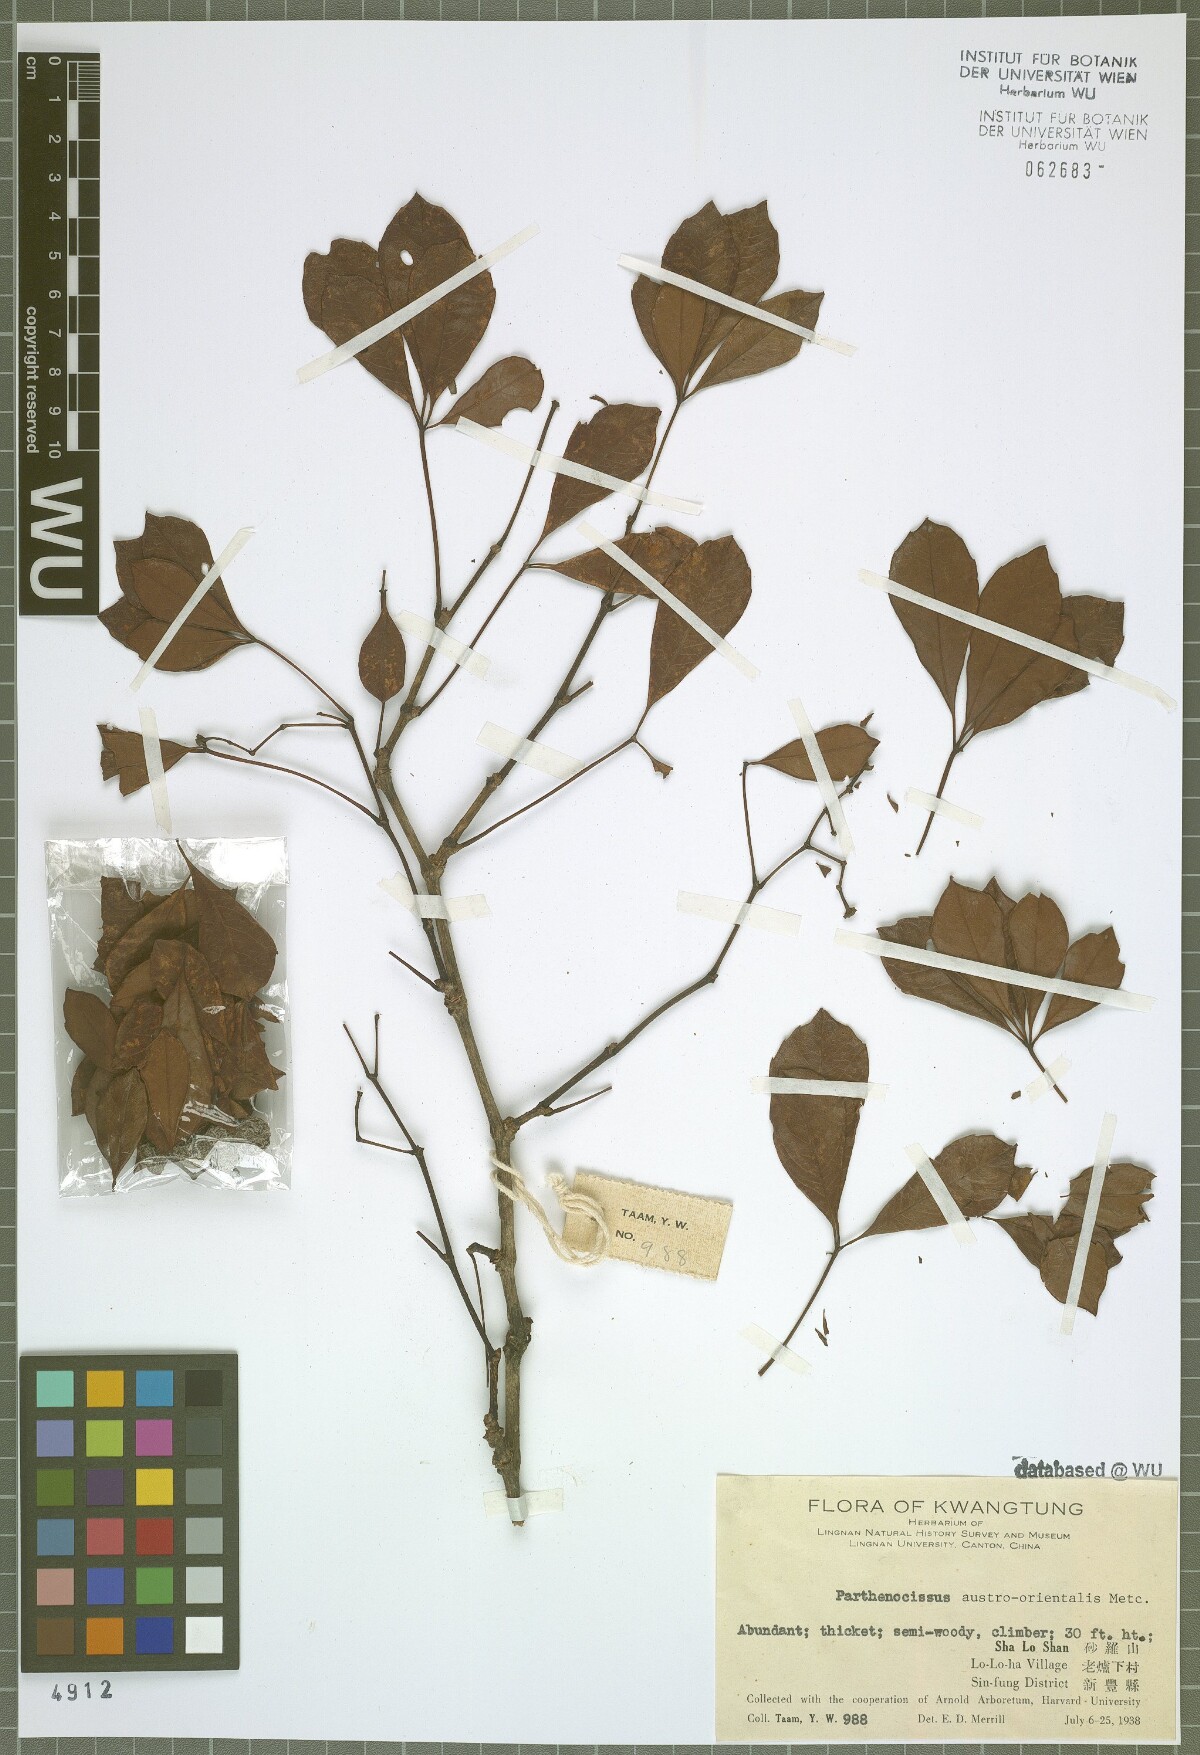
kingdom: Plantae
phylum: Tracheophyta
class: Magnoliopsida
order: Vitales
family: Vitaceae
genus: Yua
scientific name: Yua austroorientalis
